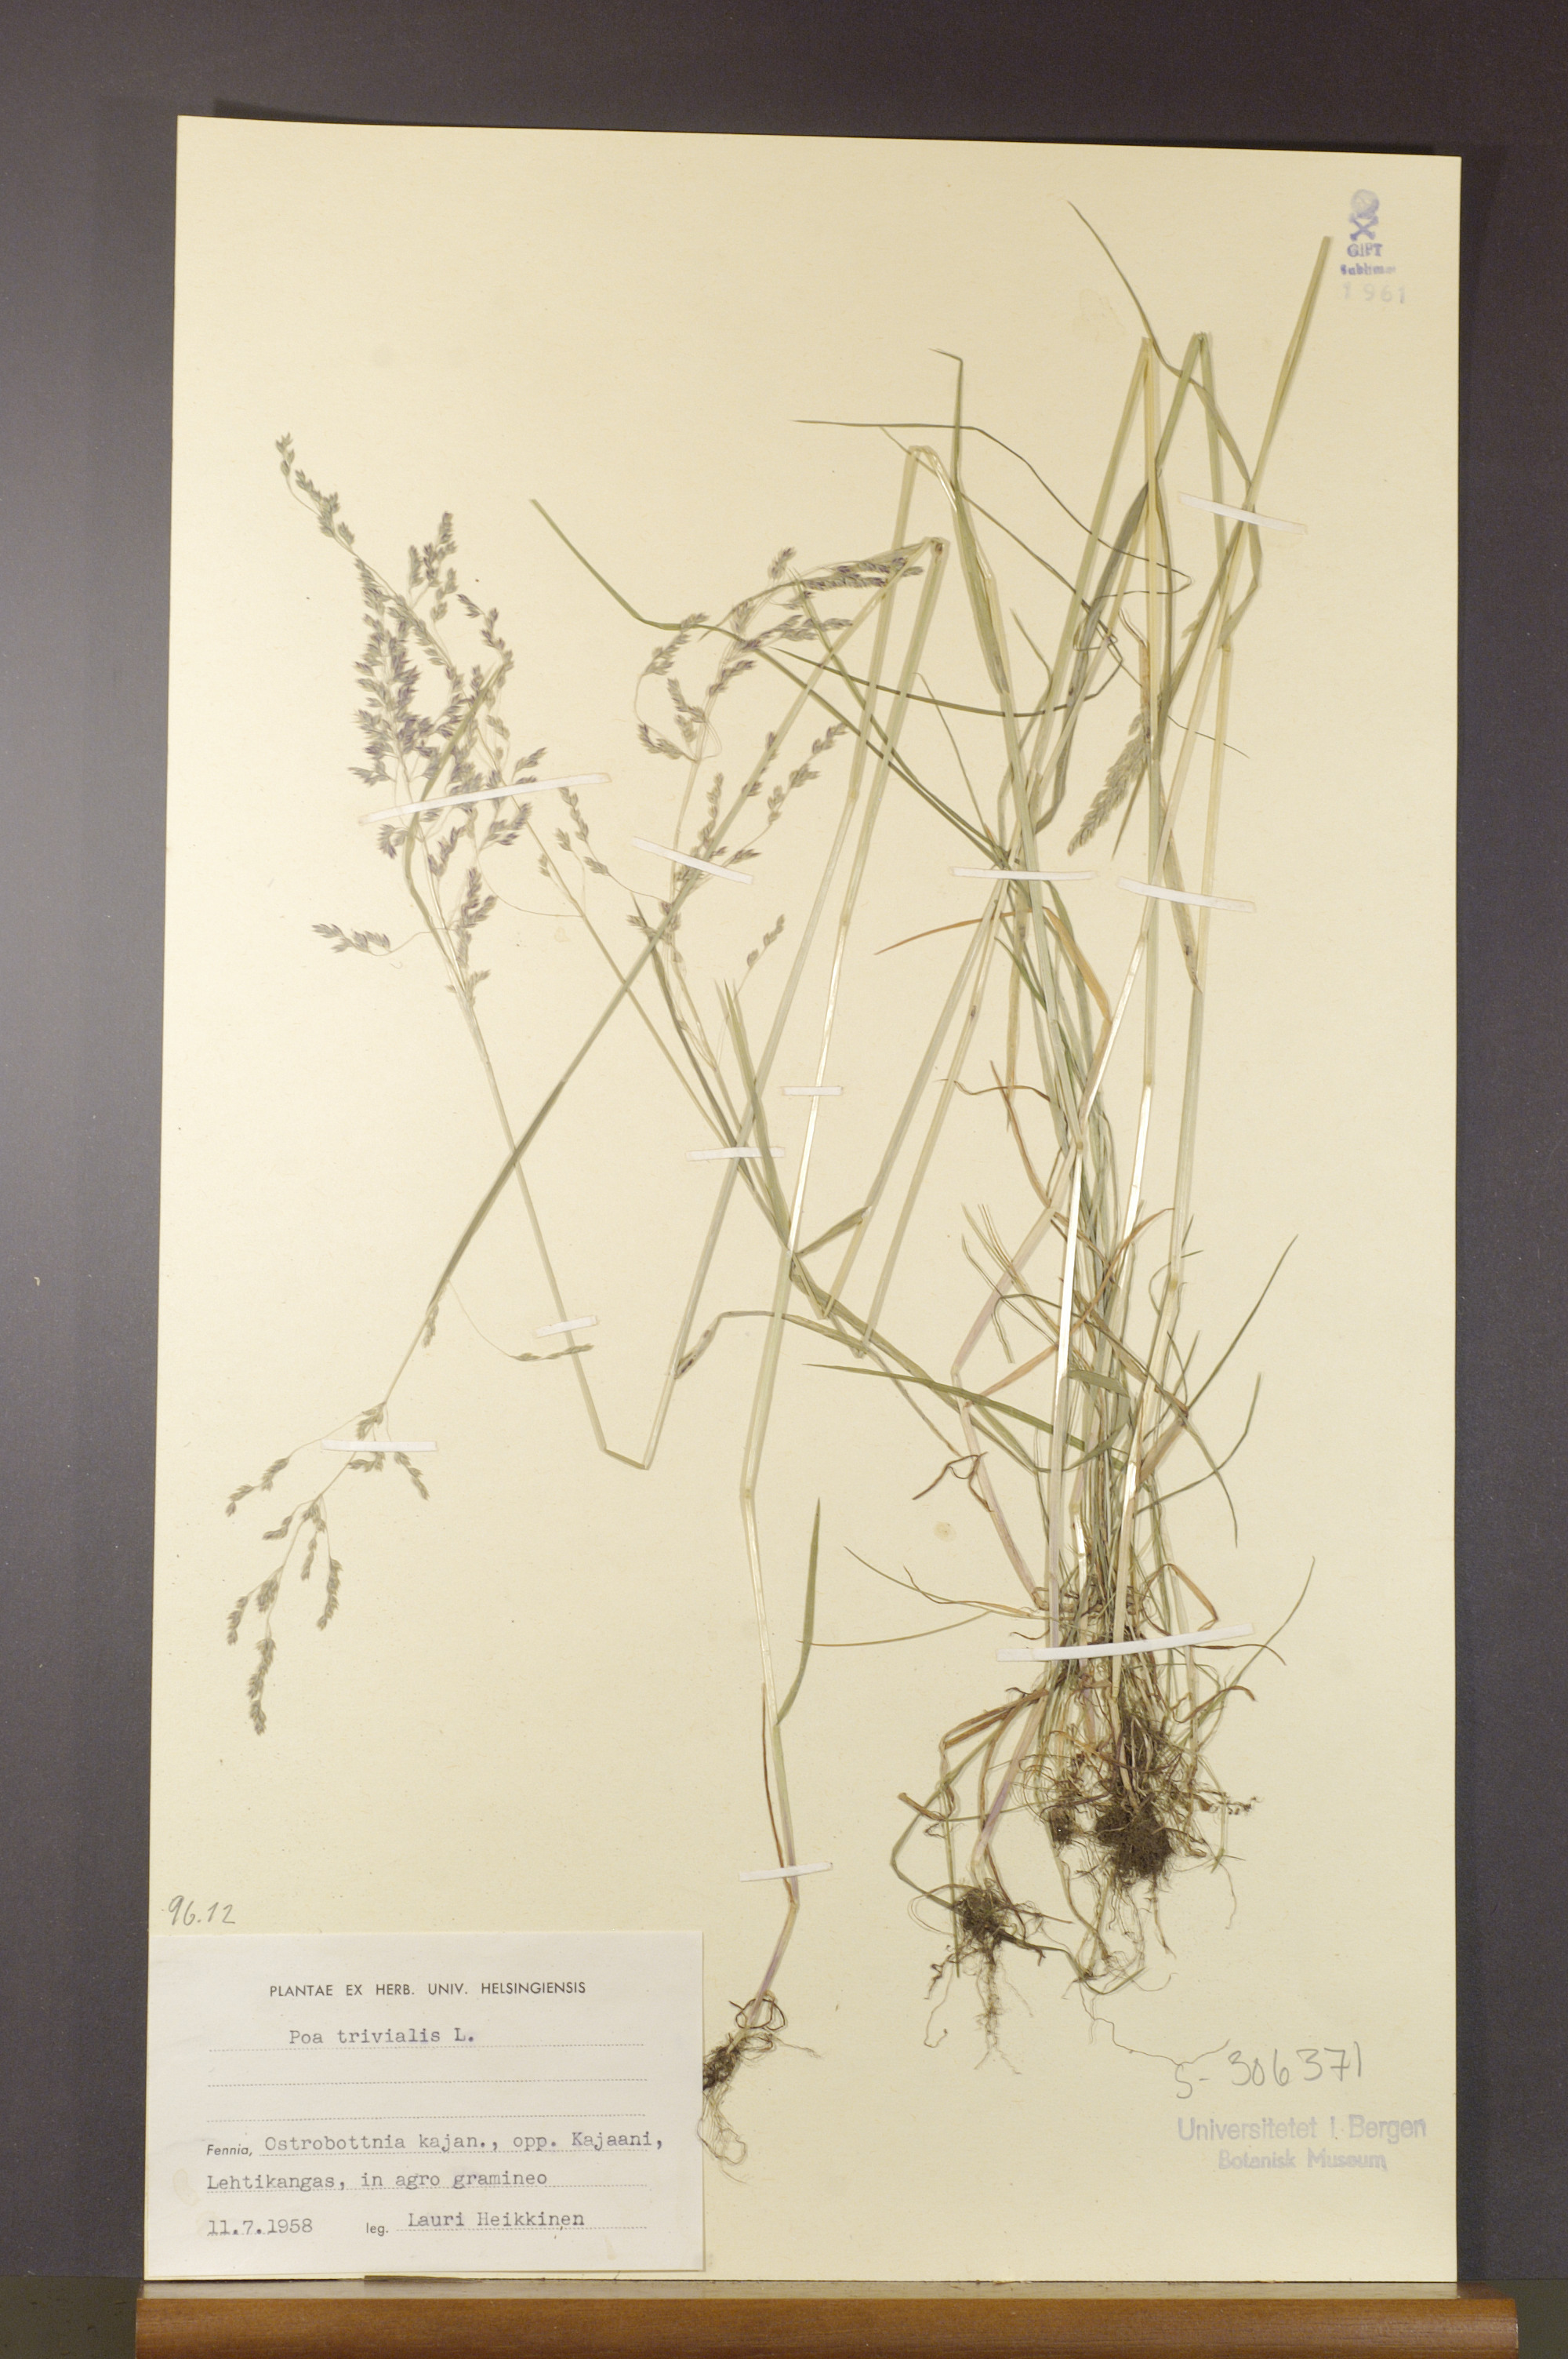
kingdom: Plantae
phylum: Tracheophyta
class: Liliopsida
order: Poales
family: Poaceae
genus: Poa
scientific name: Poa trivialis
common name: Rough bluegrass
